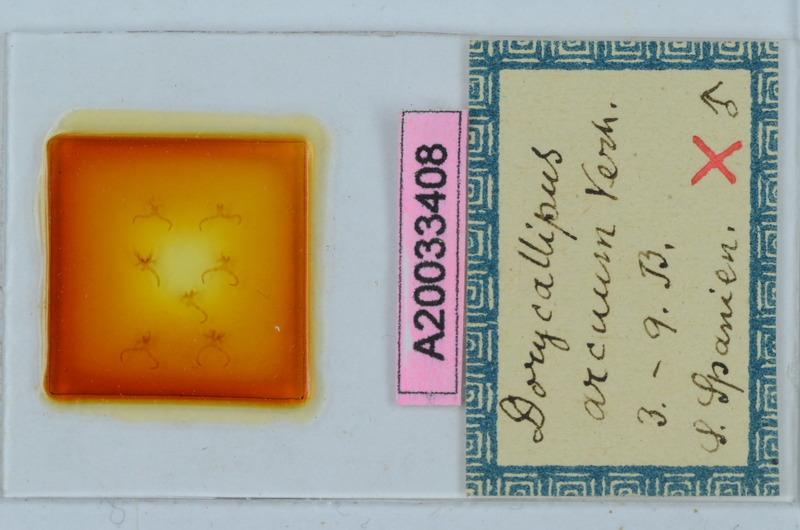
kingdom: Animalia
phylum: Arthropoda
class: Diplopoda
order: Callipodida
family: Dorypetalidae
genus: Dorycallipus
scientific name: Dorycallipus arcuum
